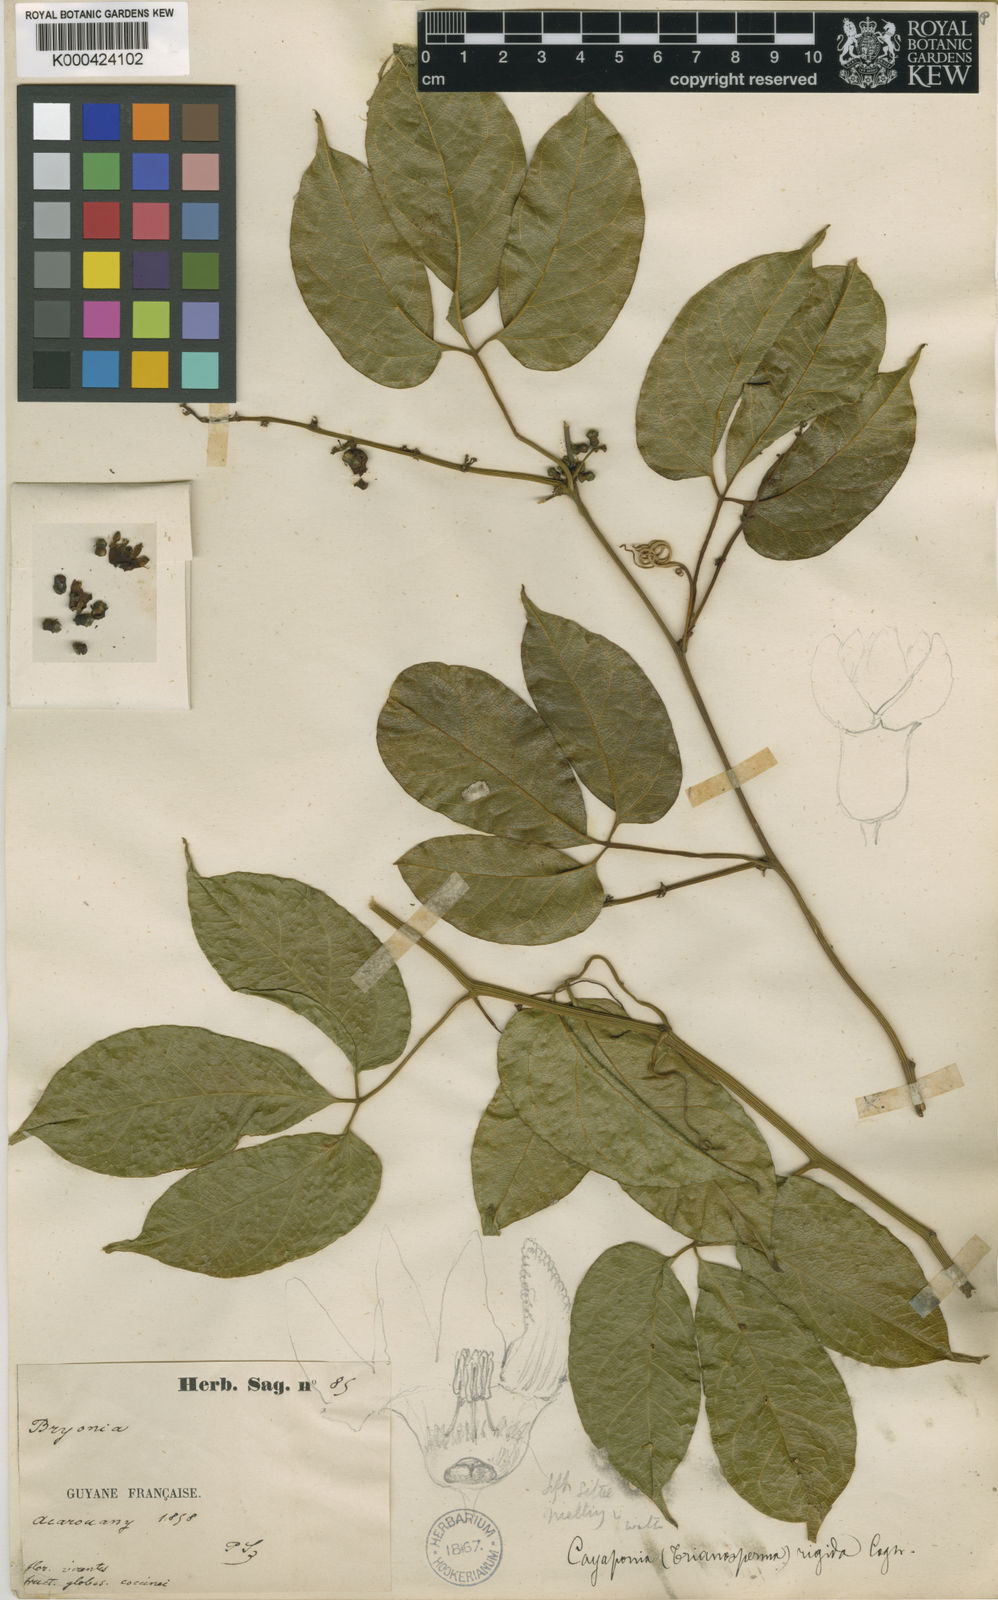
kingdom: Plantae
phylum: Tracheophyta
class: Magnoliopsida
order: Cucurbitales
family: Cucurbitaceae
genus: Cayaponia
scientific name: Cayaponia rigida
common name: Boskomkommer
